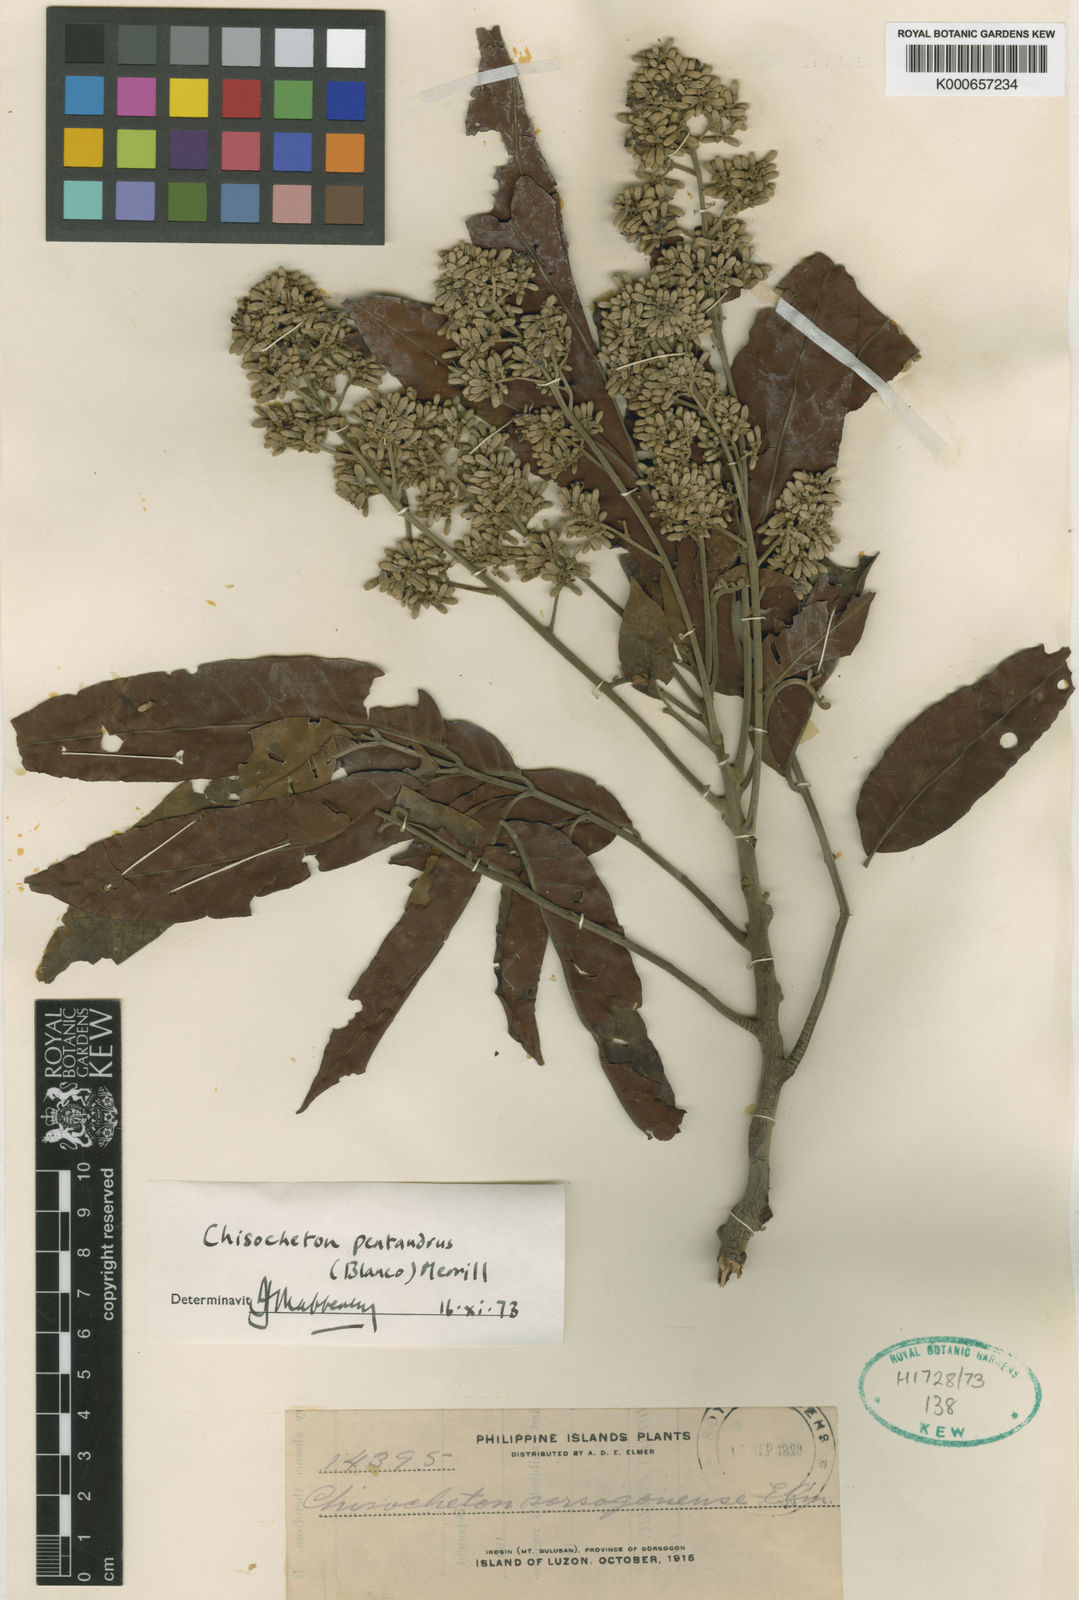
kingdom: Plantae
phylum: Tracheophyta
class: Magnoliopsida
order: Sapindales
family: Meliaceae
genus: Chisocheton
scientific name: Chisocheton pentandrus
